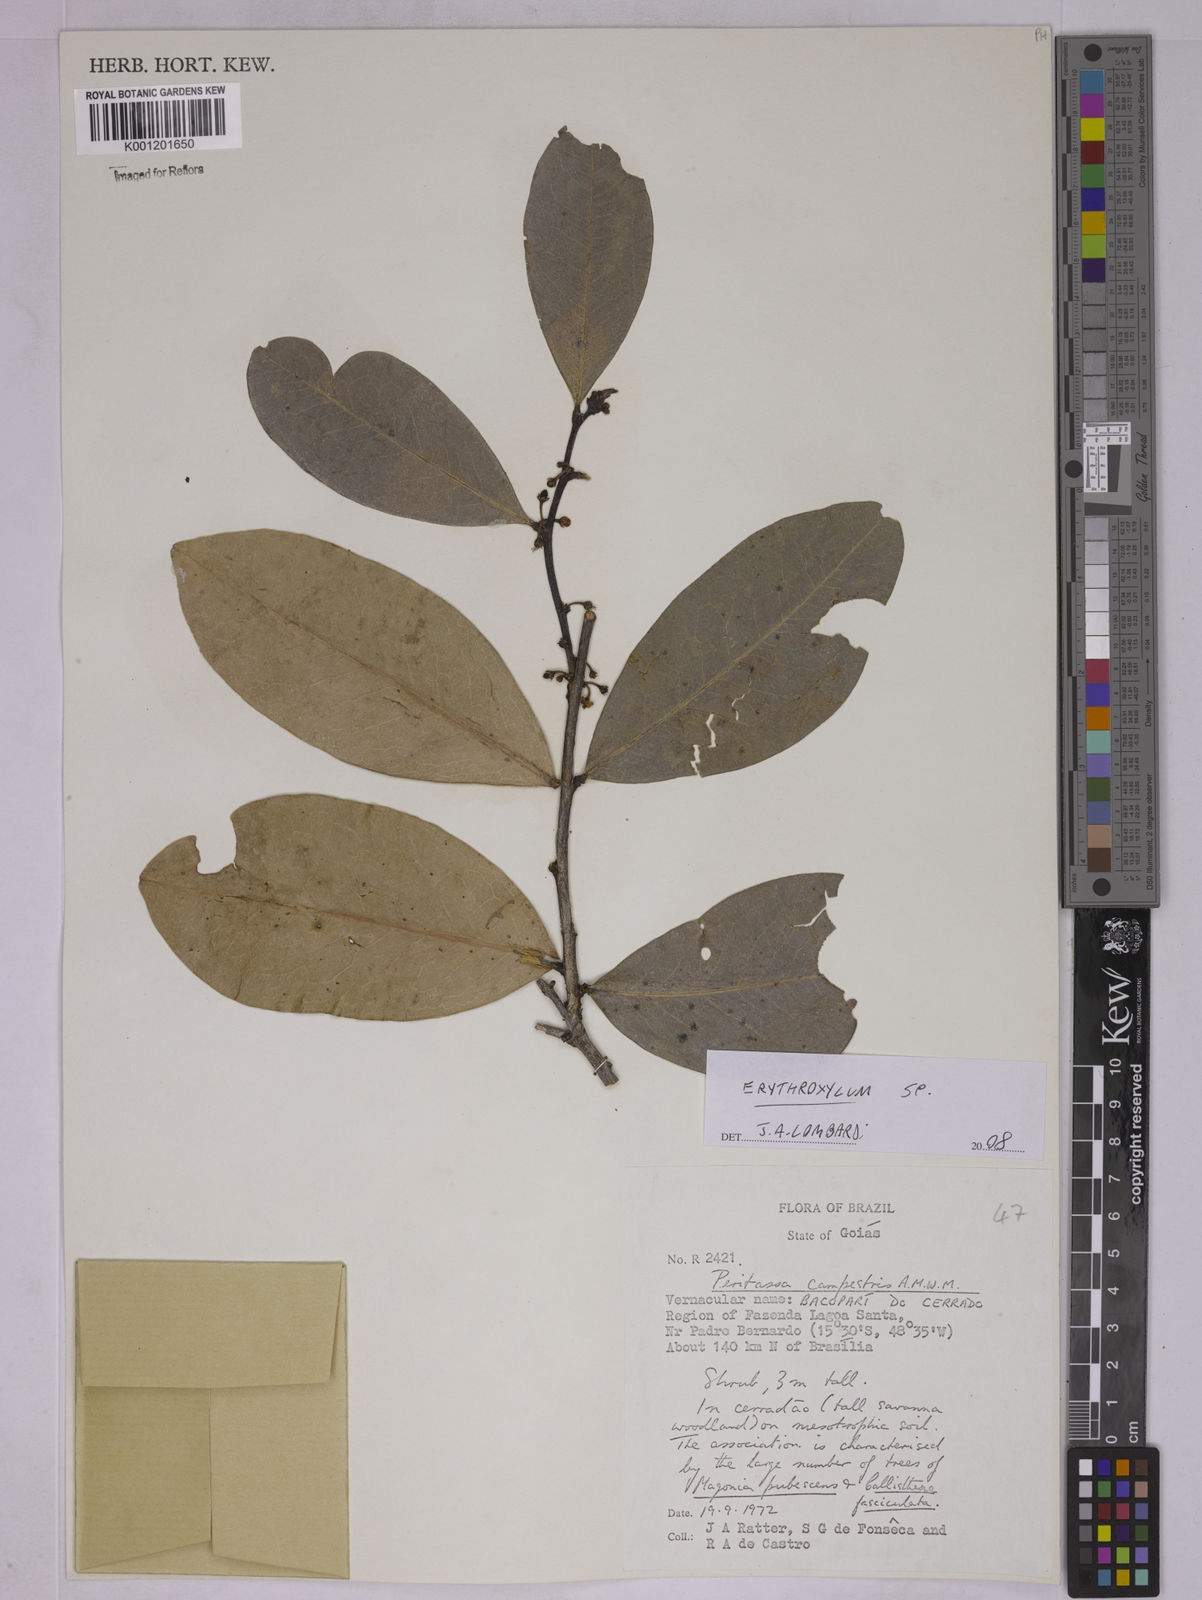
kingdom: Plantae
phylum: Tracheophyta
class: Magnoliopsida
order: Malpighiales
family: Erythroxylaceae
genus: Erythroxylum
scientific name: Erythroxylum
